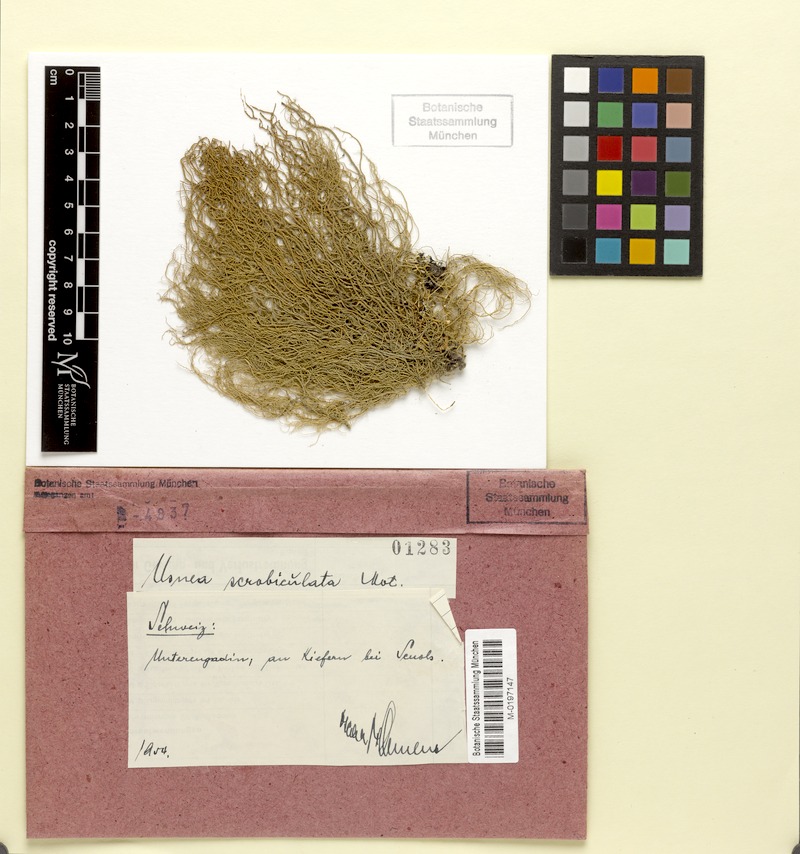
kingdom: Fungi
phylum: Ascomycota
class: Lecanoromycetes
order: Lecanorales
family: Parmeliaceae
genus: Usnea
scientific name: Usnea barbata
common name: Old man's beard lichen
